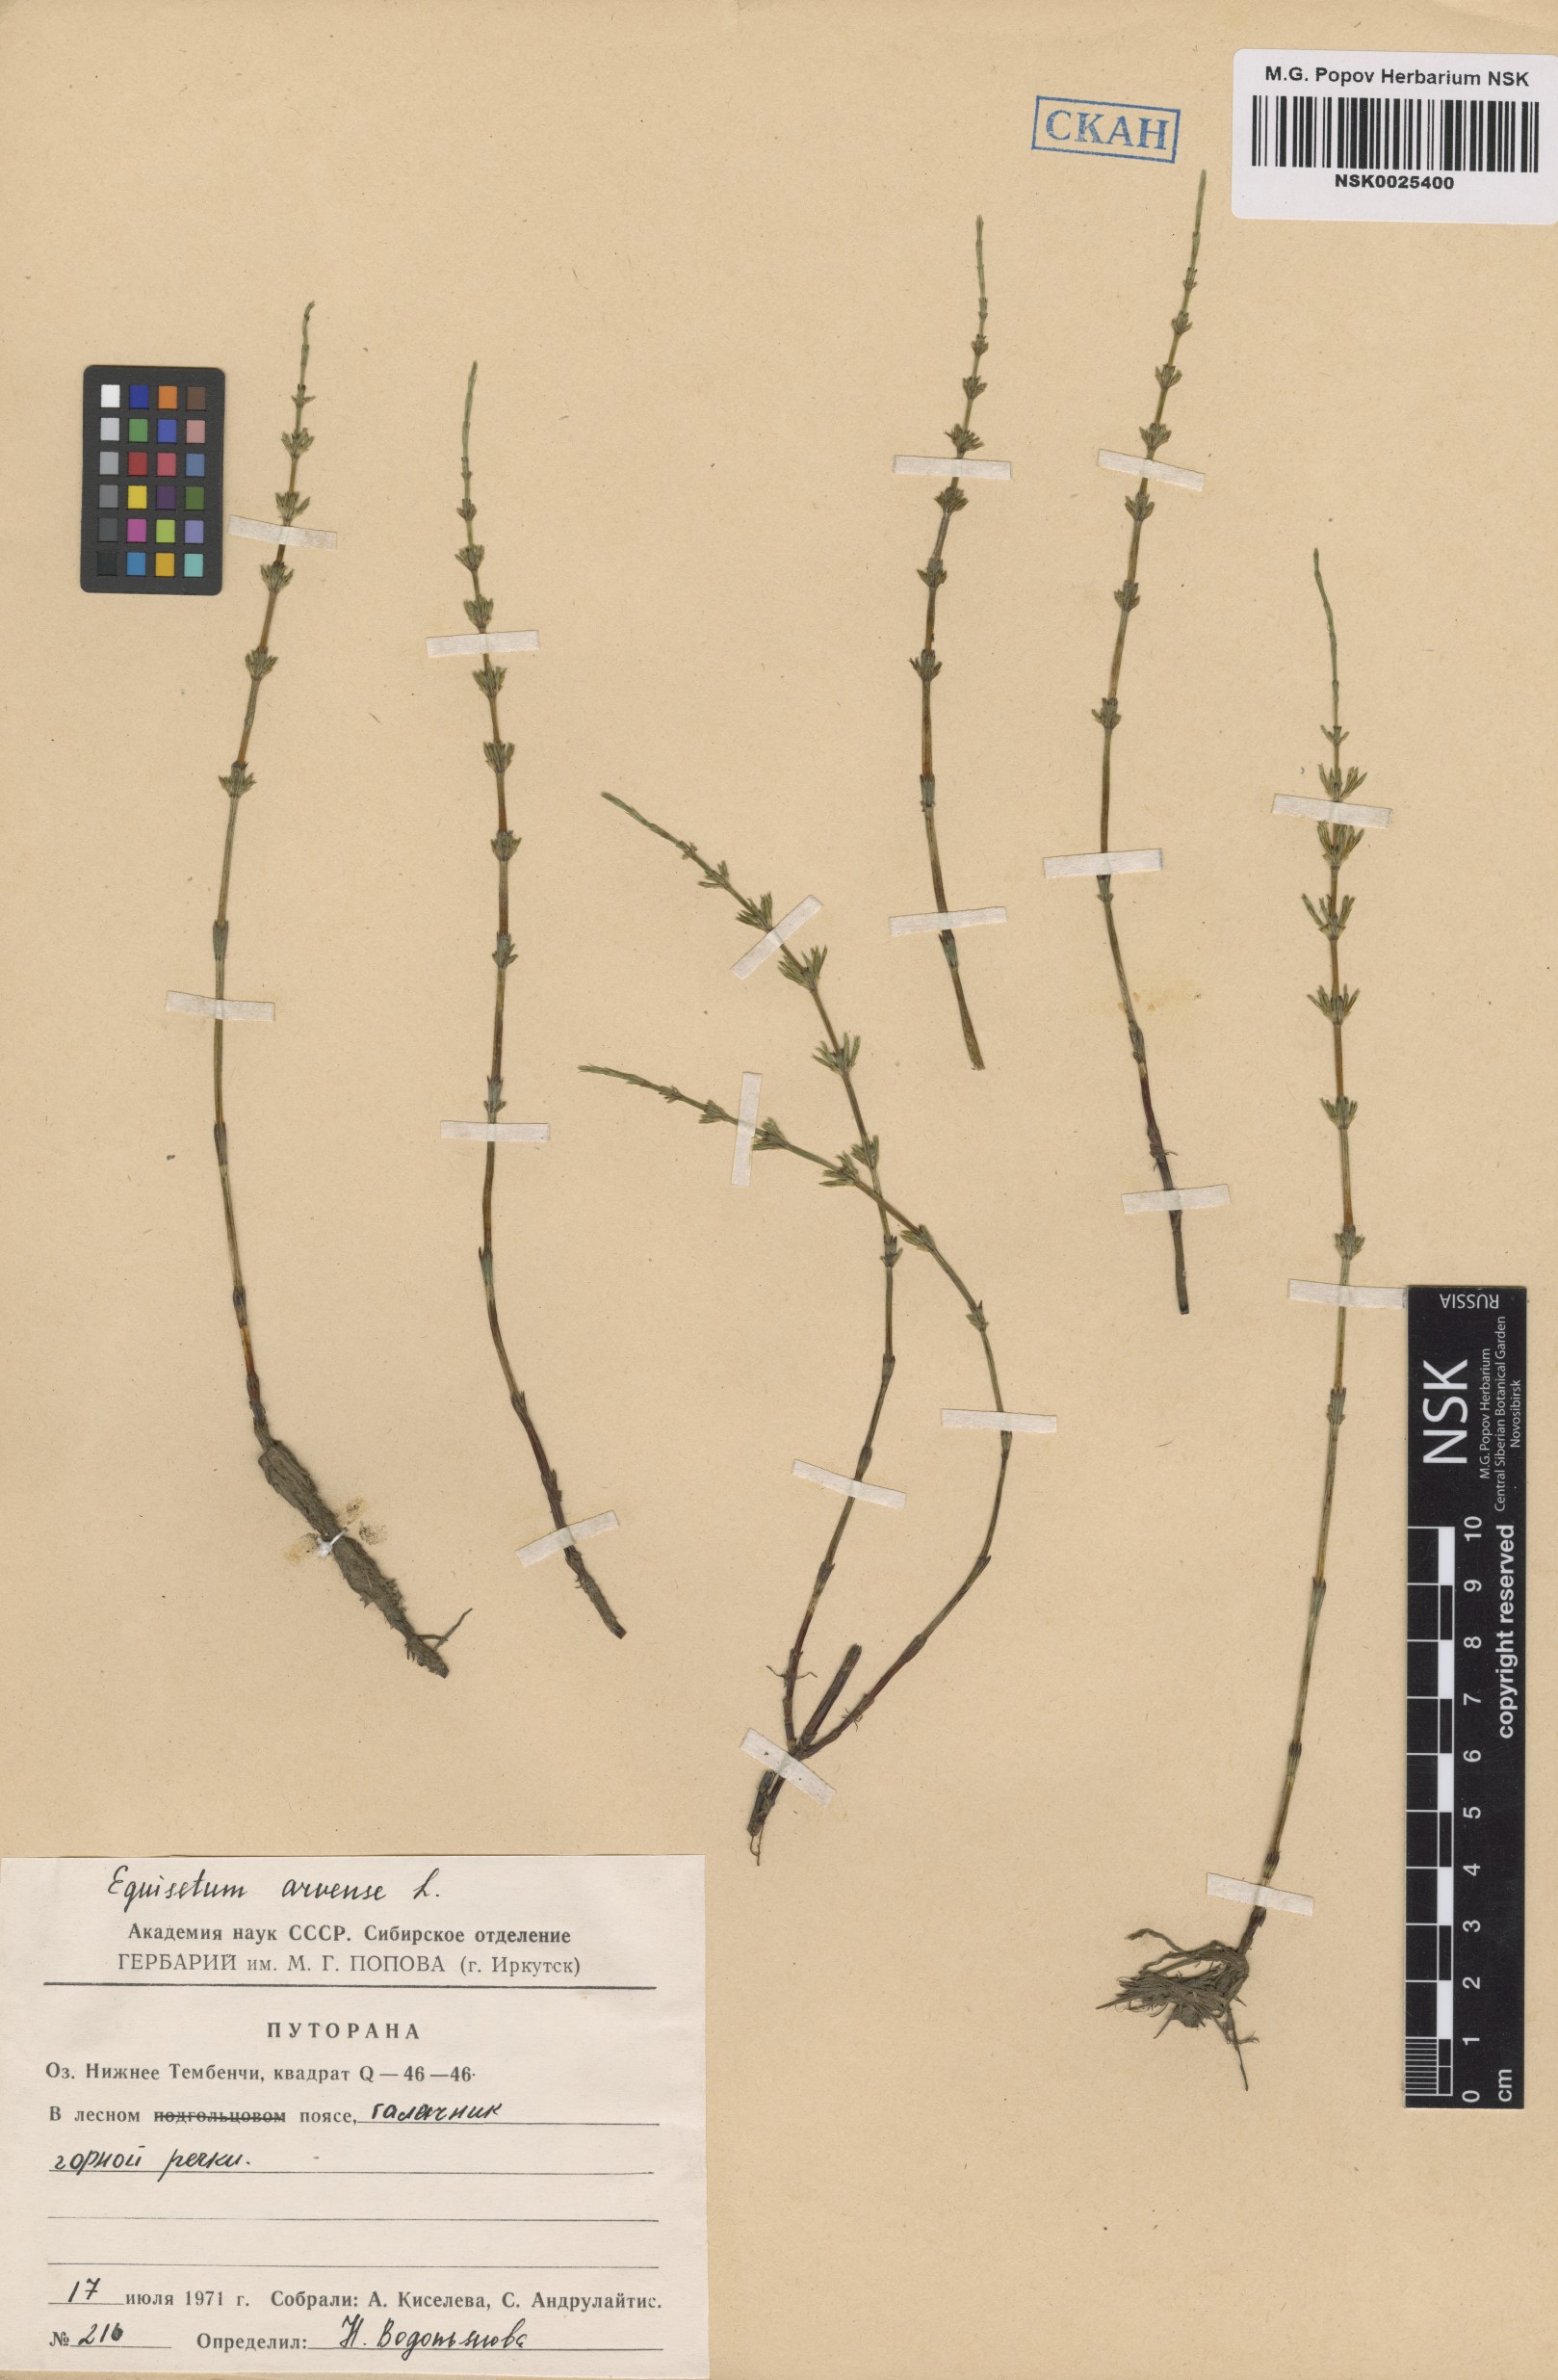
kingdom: Plantae
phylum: Tracheophyta
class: Polypodiopsida
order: Equisetales
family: Equisetaceae
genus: Equisetum
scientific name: Equisetum arvense
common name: Field horsetail
